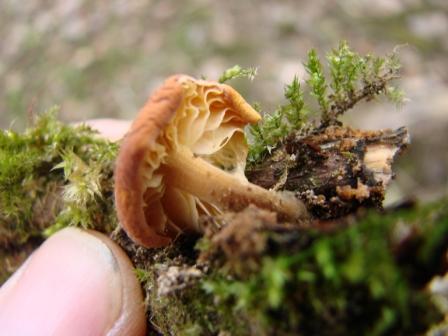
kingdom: Fungi
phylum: Basidiomycota
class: Agaricomycetes
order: Agaricales
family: Physalacriaceae
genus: Flammulina
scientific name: Flammulina velutipes
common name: gul fløjlsfod
